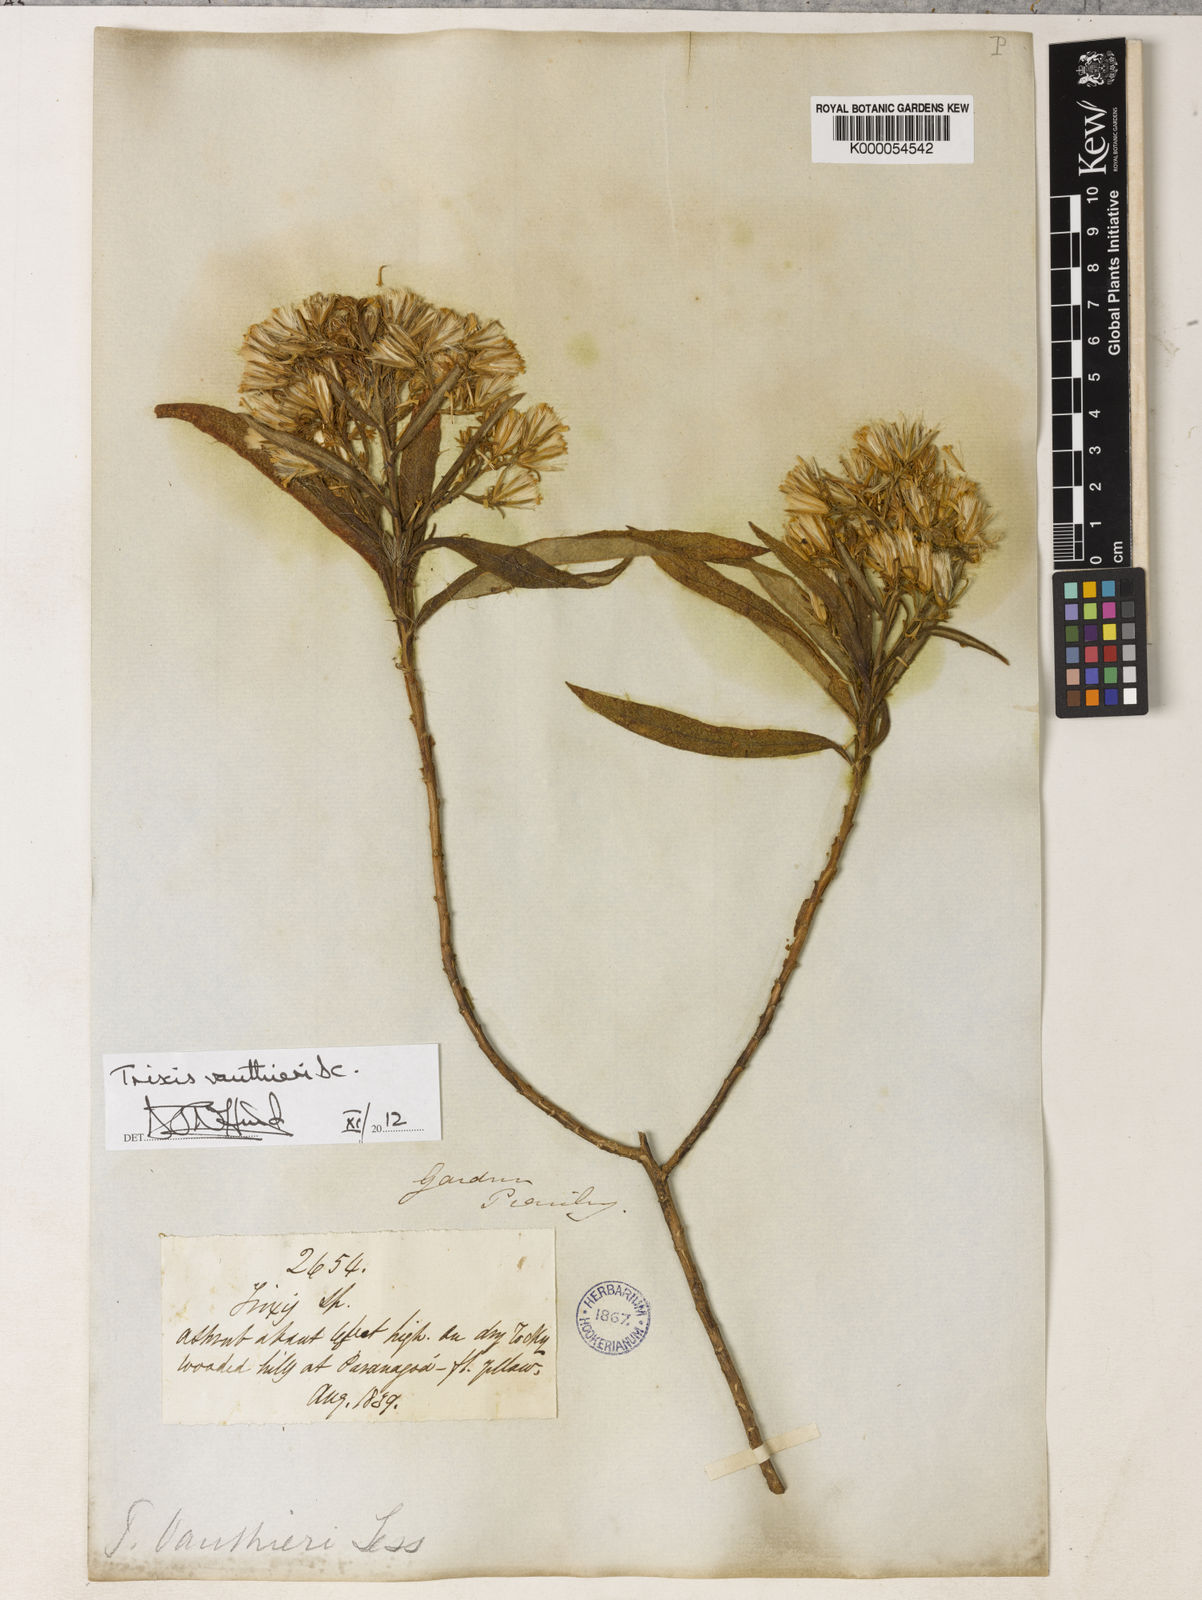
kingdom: Plantae
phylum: Tracheophyta
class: Magnoliopsida
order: Asterales
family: Asteraceae
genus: Trixis
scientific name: Trixis vauthieri
